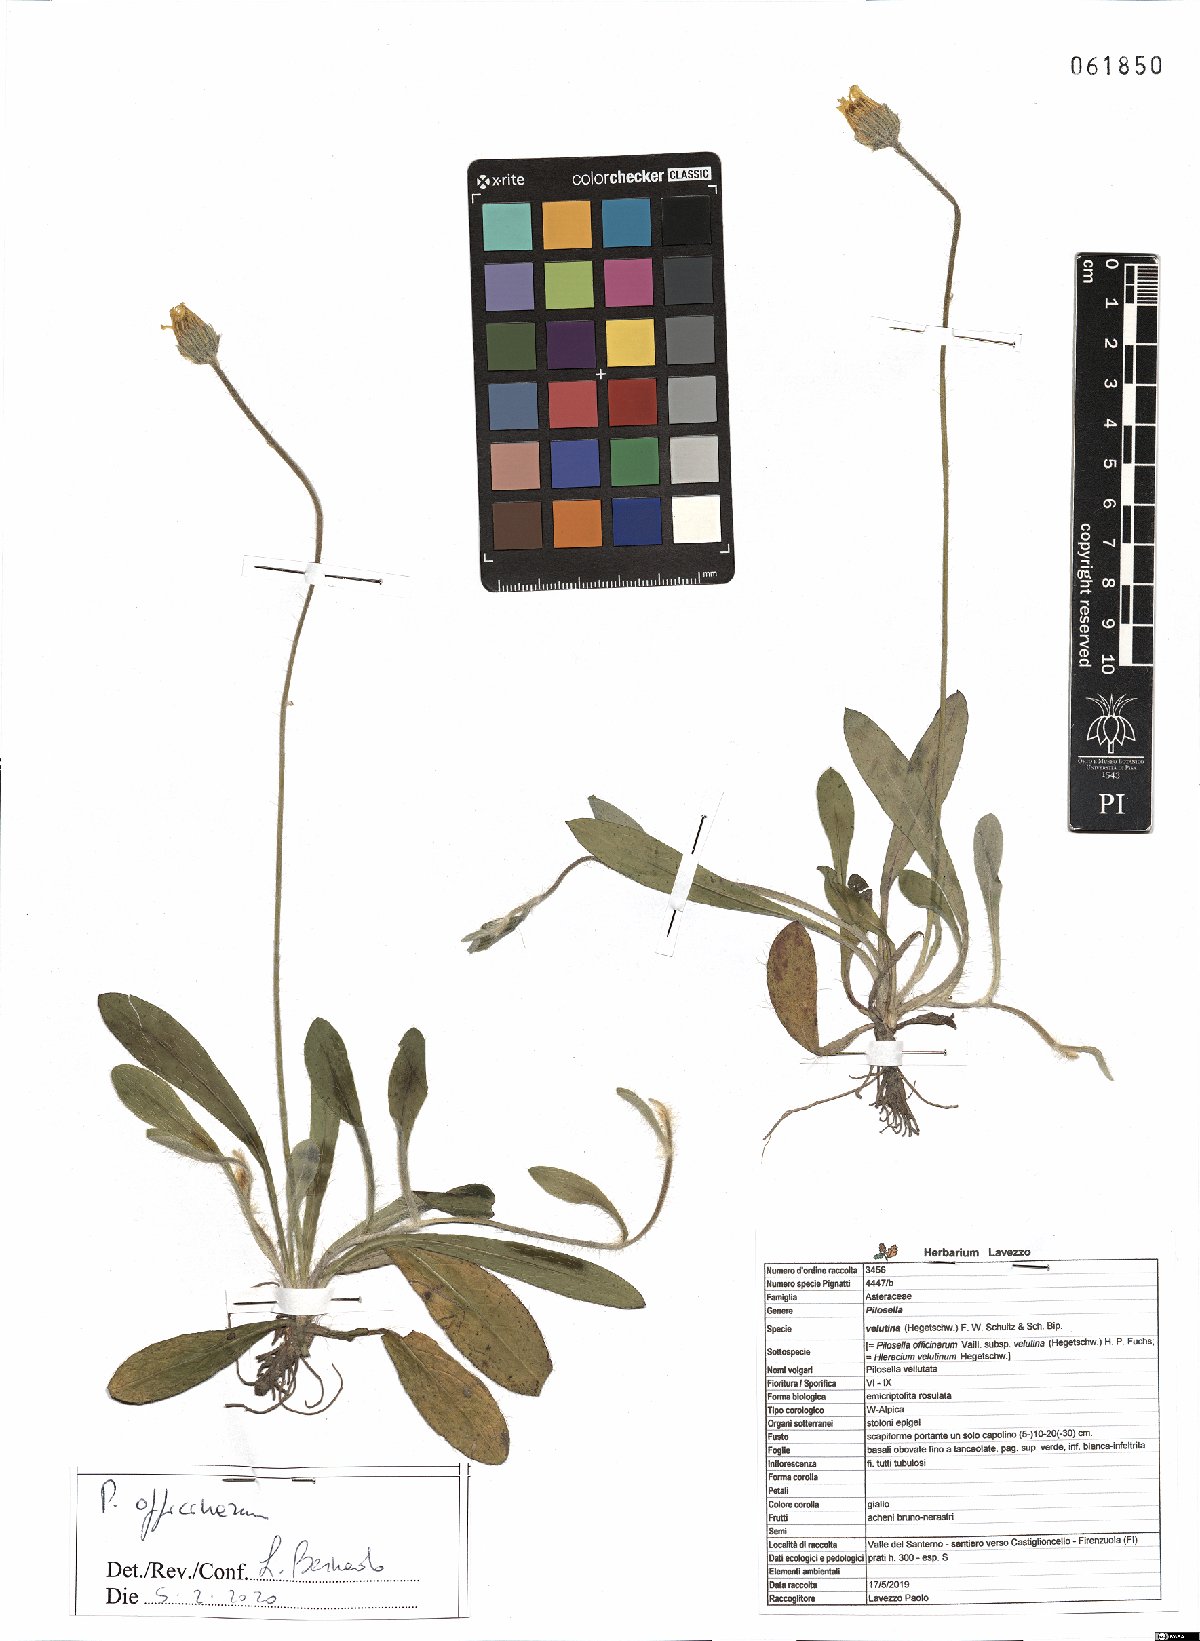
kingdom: Plantae
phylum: Tracheophyta
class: Magnoliopsida
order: Asterales
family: Asteraceae
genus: Pilosella
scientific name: Pilosella officinarum
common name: Mouse-ear hawkweed
